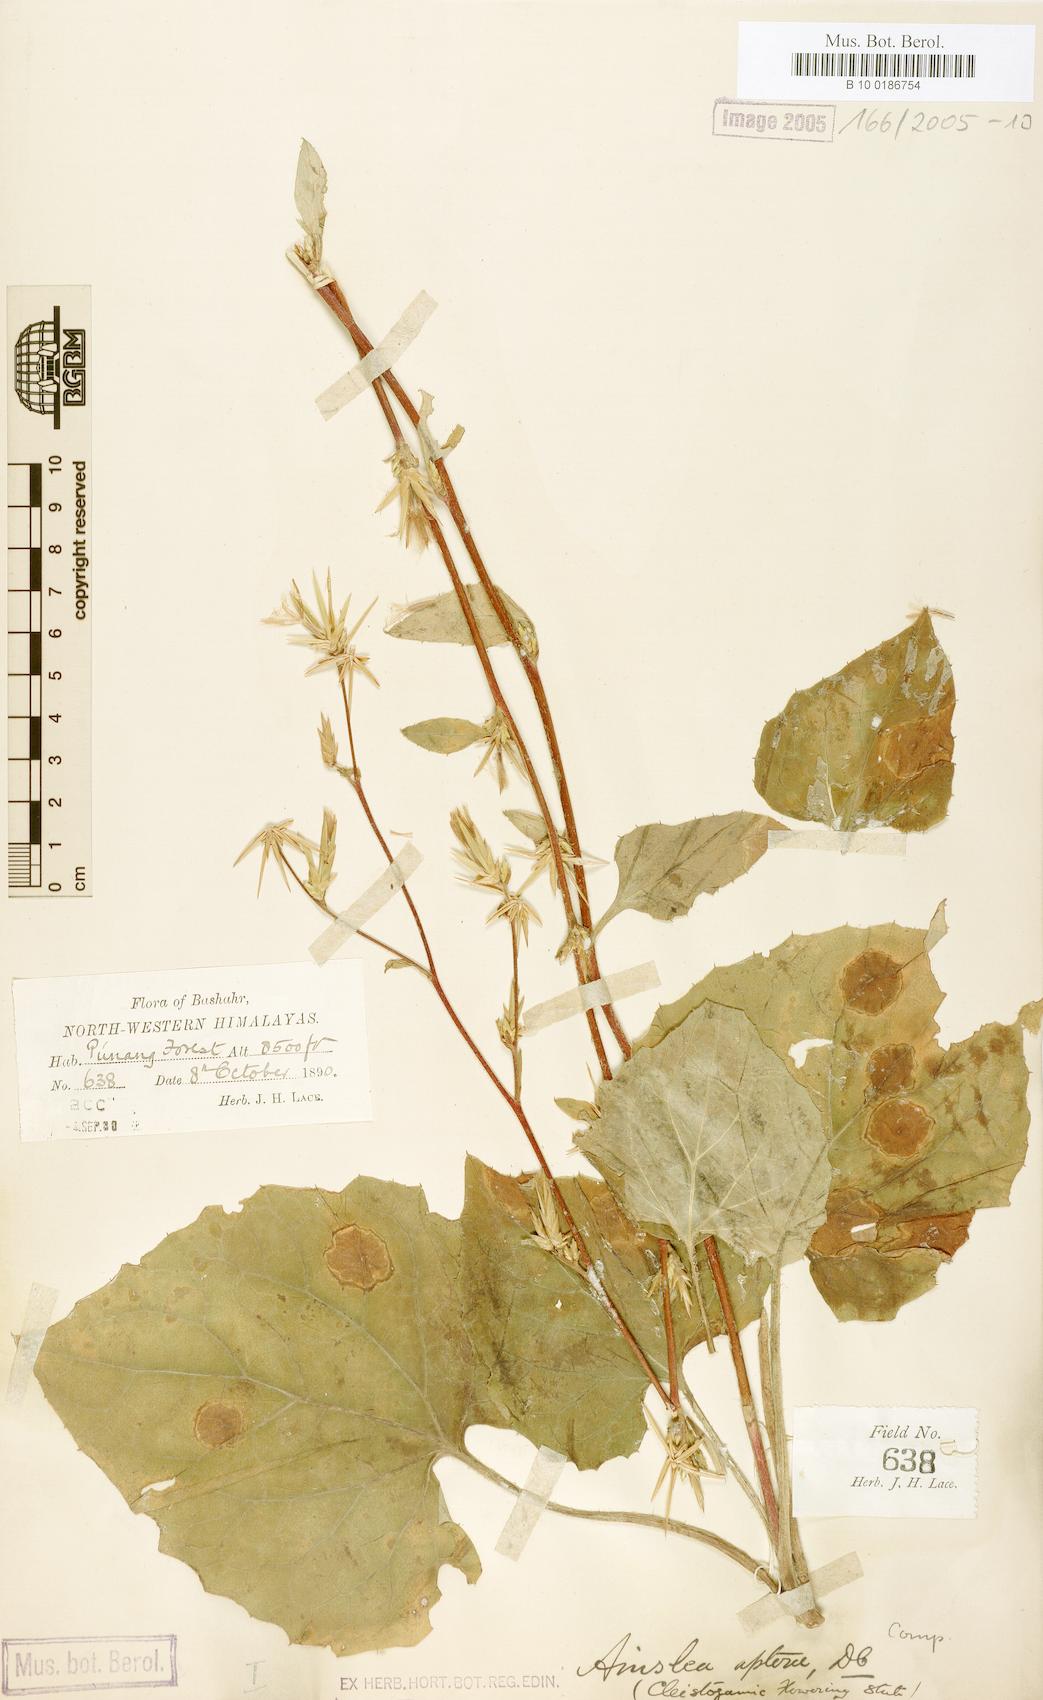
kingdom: Plantae
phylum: Tracheophyta
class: Magnoliopsida
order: Asterales
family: Asteraceae
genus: Ainsliaea
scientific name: Ainsliaea aptera
